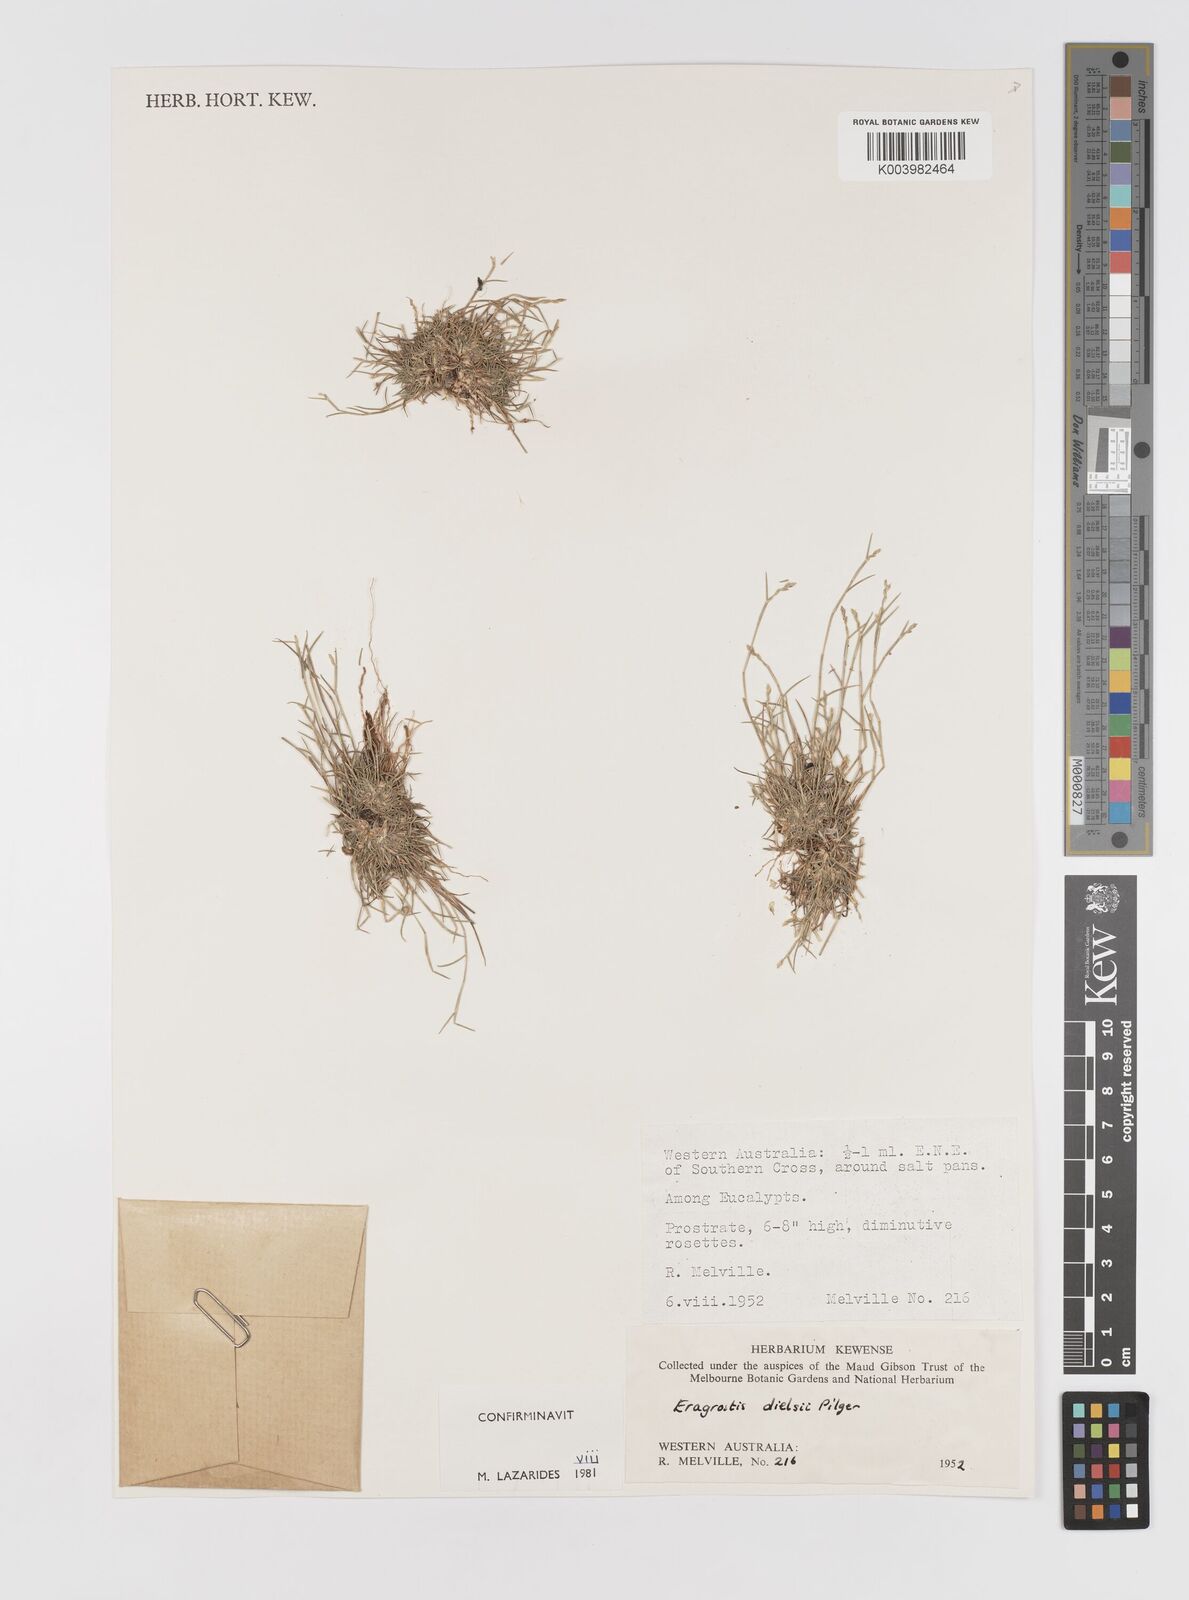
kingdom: Plantae
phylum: Tracheophyta
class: Liliopsida
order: Poales
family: Poaceae
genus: Eragrostis
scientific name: Eragrostis dielsii
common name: Lovegrass
